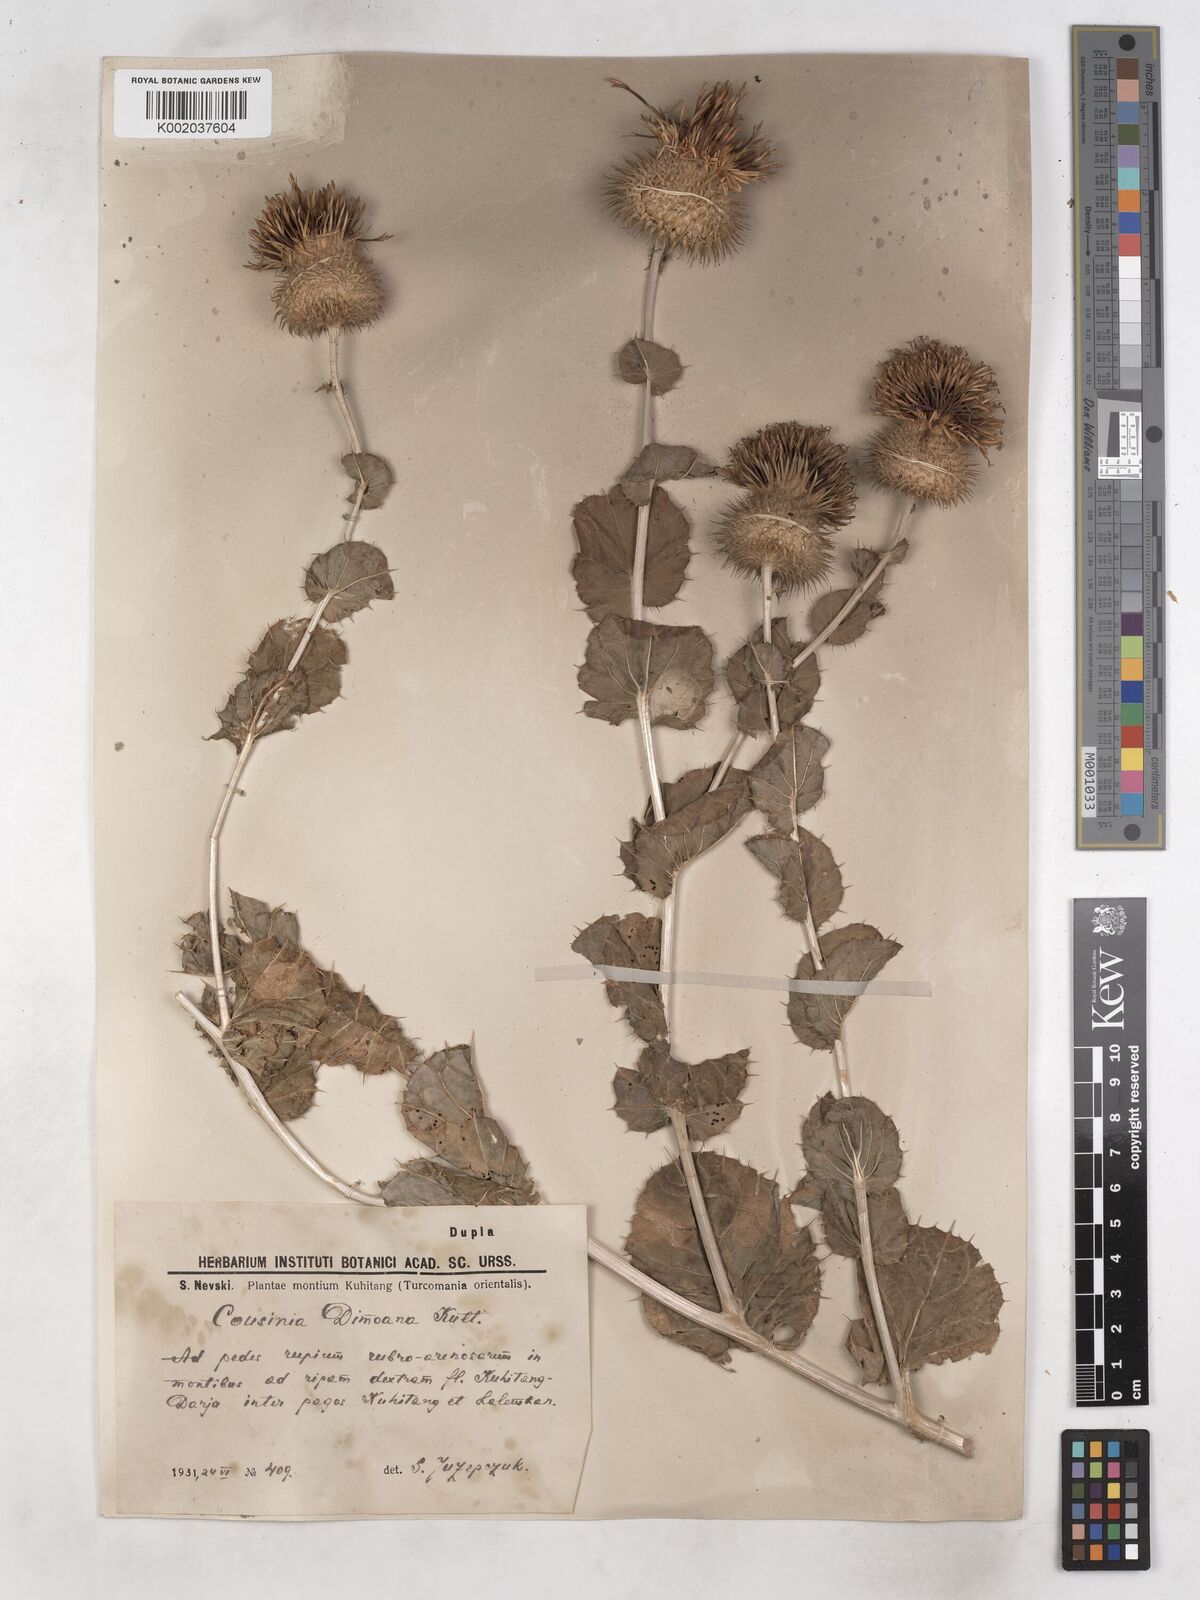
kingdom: Plantae
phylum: Tracheophyta
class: Magnoliopsida
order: Asterales
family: Asteraceae
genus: Cousinia
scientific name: Cousinia dimoana
